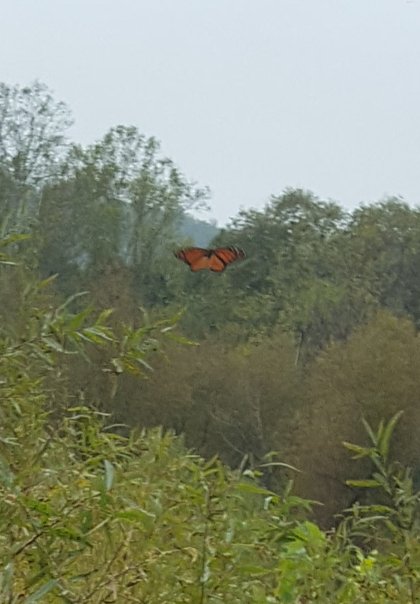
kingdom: Animalia
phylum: Arthropoda
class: Insecta
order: Lepidoptera
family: Nymphalidae
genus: Danaus
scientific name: Danaus plexippus
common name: Monarch
